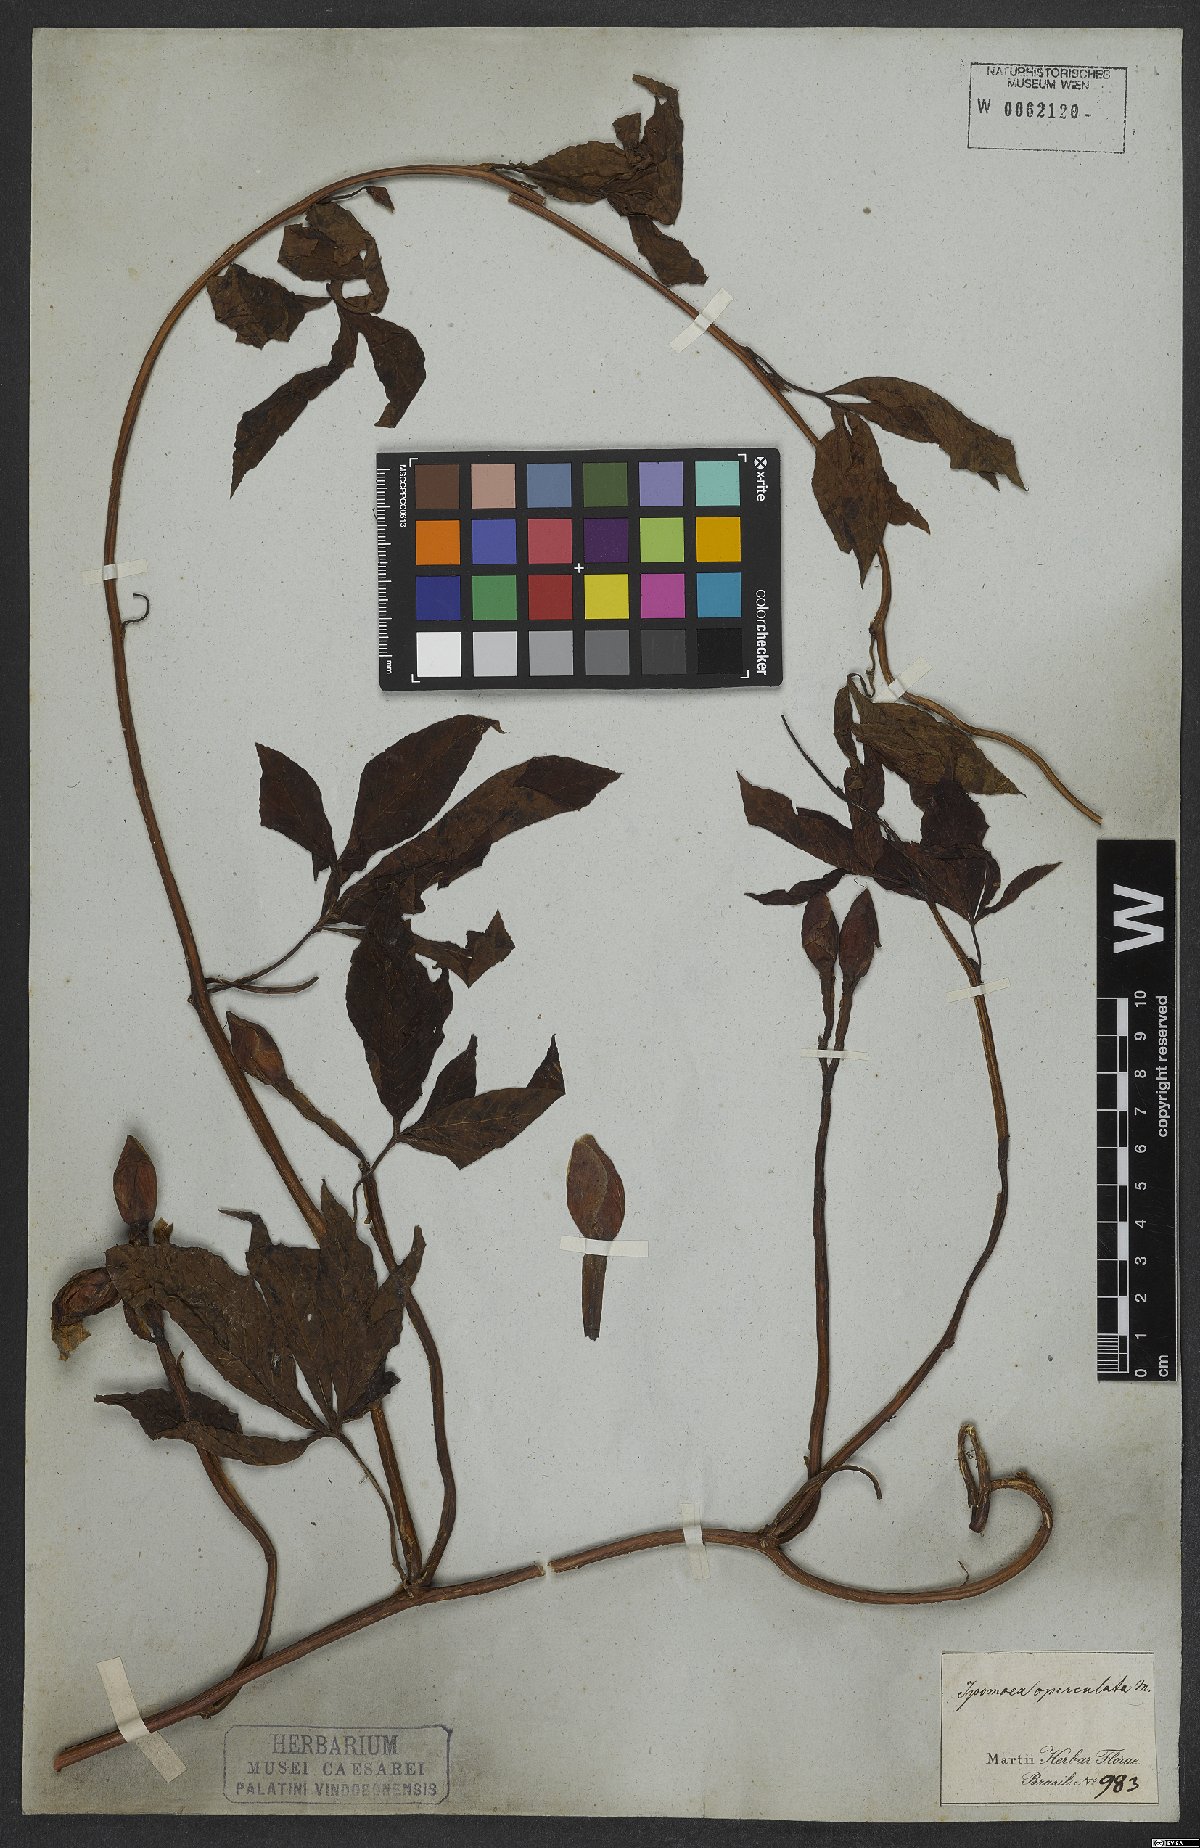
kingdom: Plantae
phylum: Tracheophyta
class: Magnoliopsida
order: Solanales
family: Convolvulaceae
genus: Operculina
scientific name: Operculina macrocarpa
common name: Brazilian jalap
